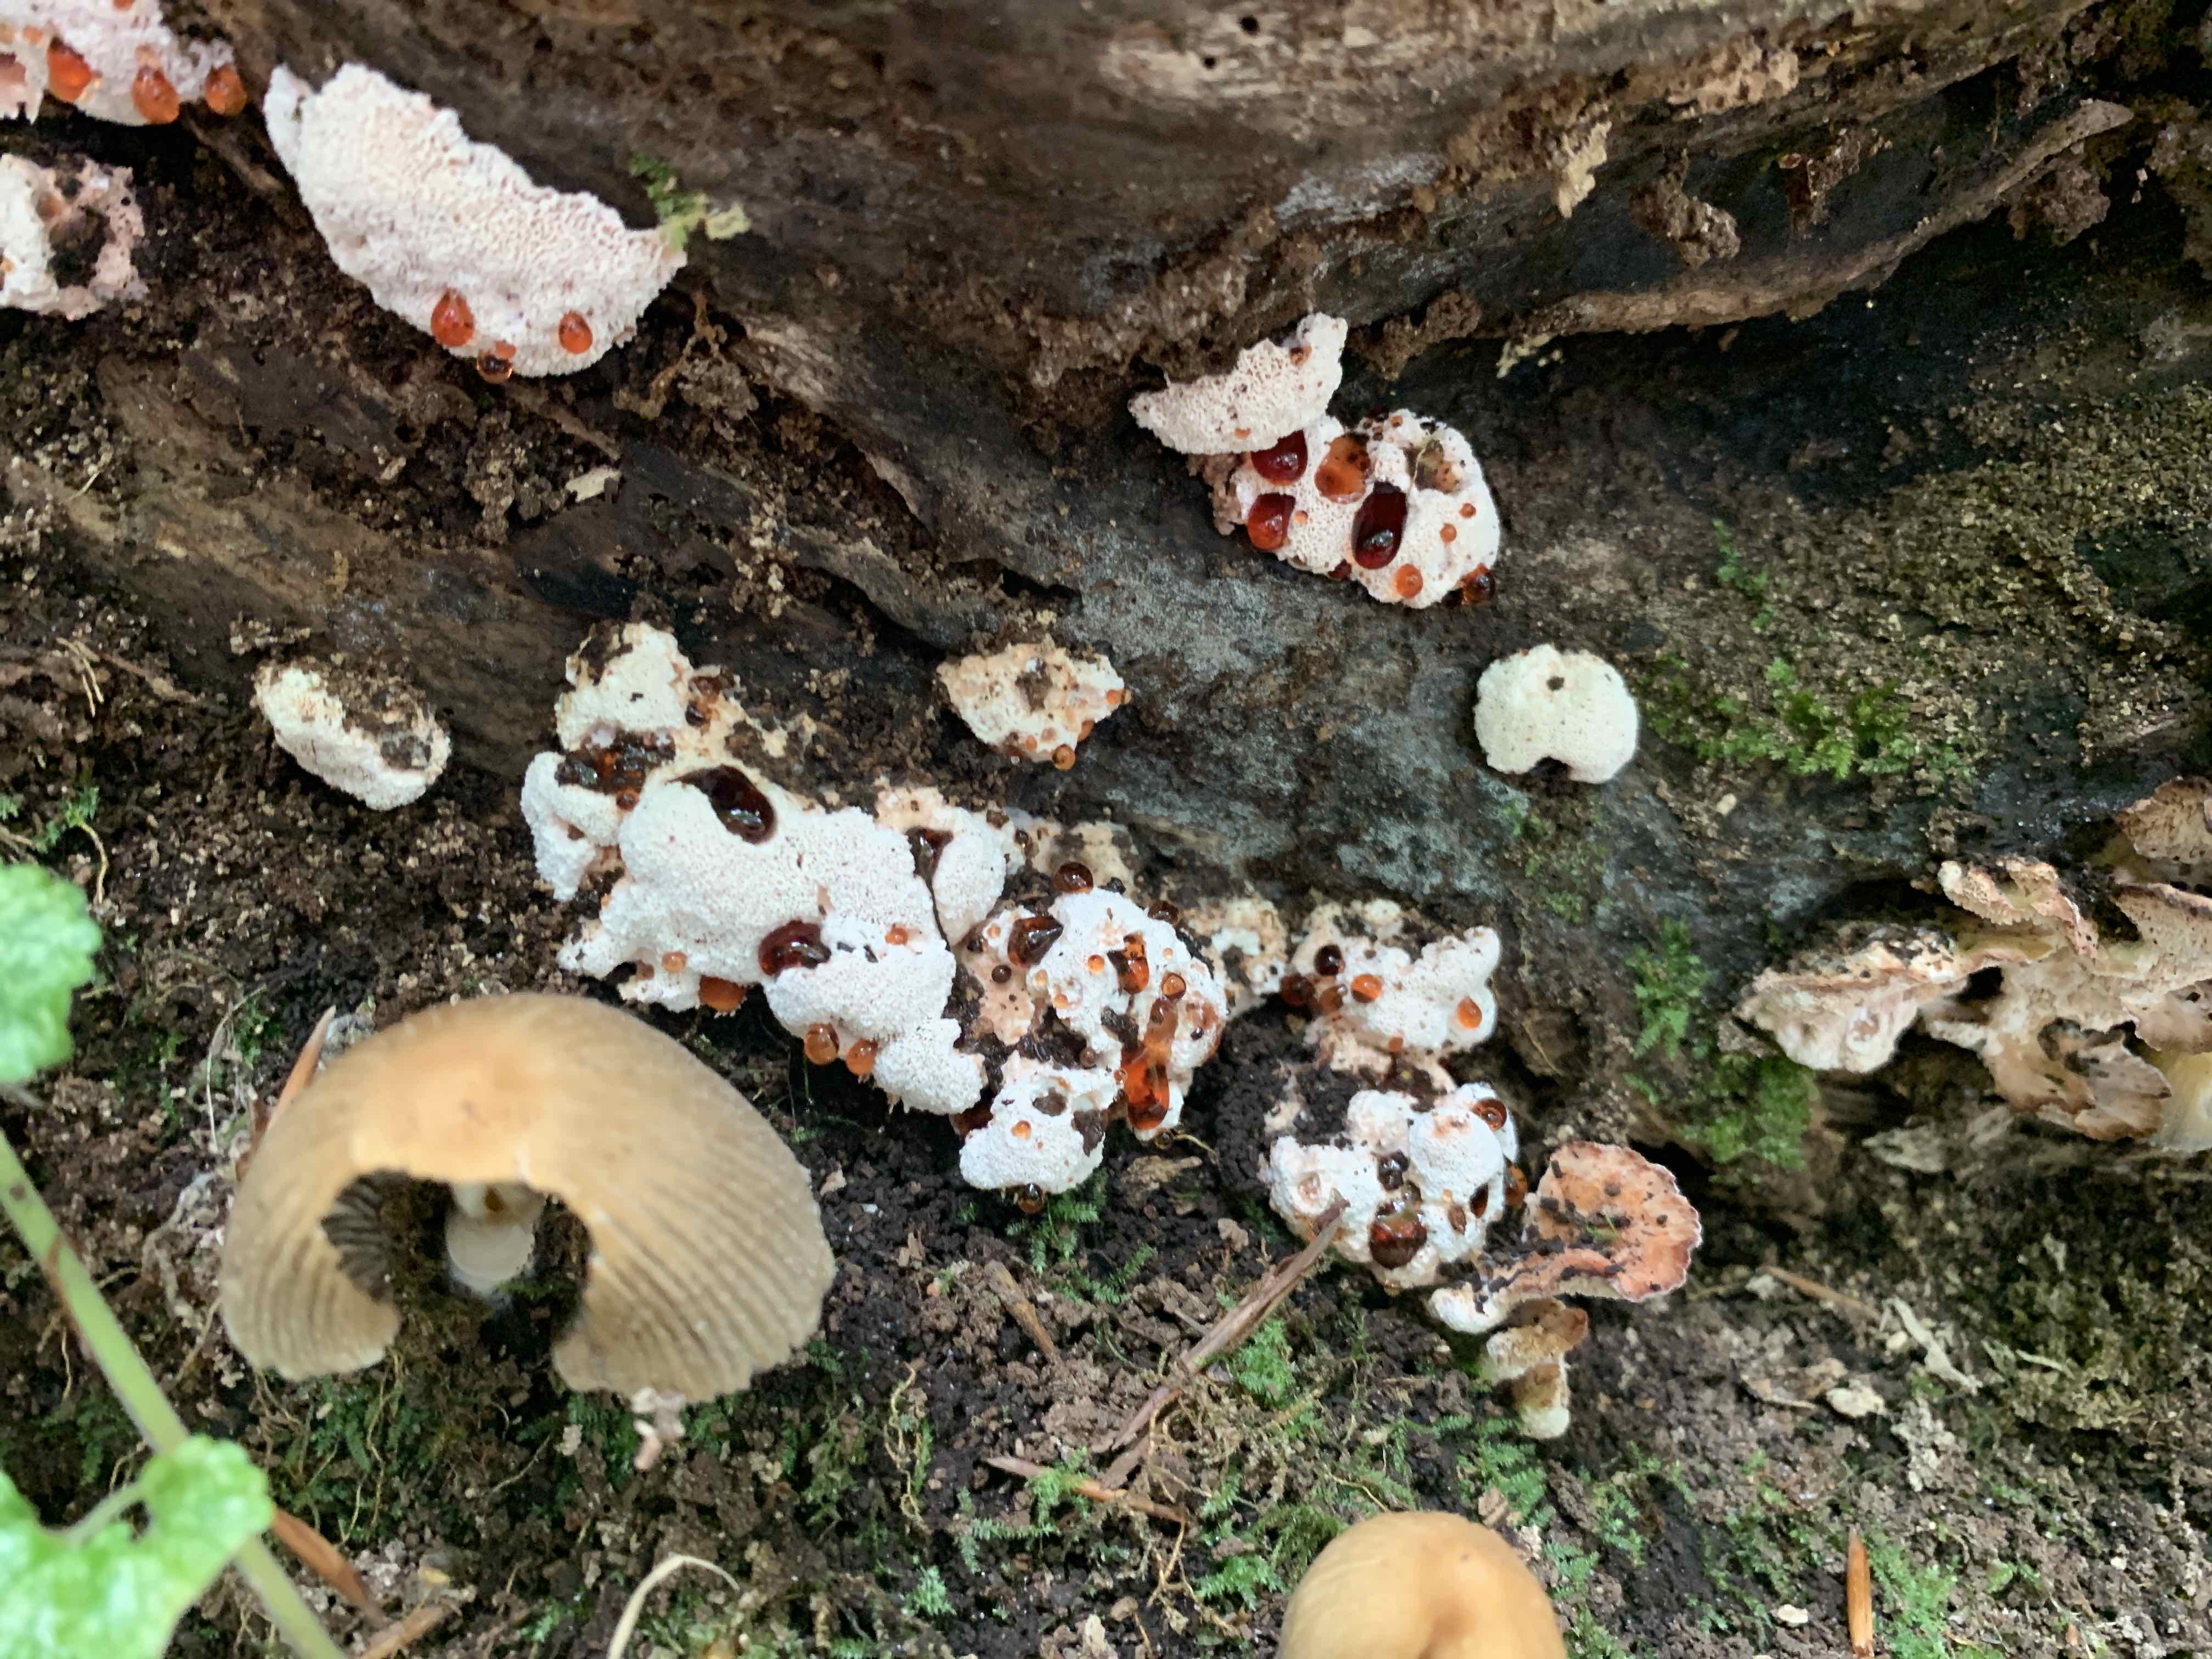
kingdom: Fungi
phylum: Basidiomycota
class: Agaricomycetes
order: Polyporales
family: Podoscyphaceae
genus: Abortiporus
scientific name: Abortiporus biennis
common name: rødmende pjalteporesvamp
